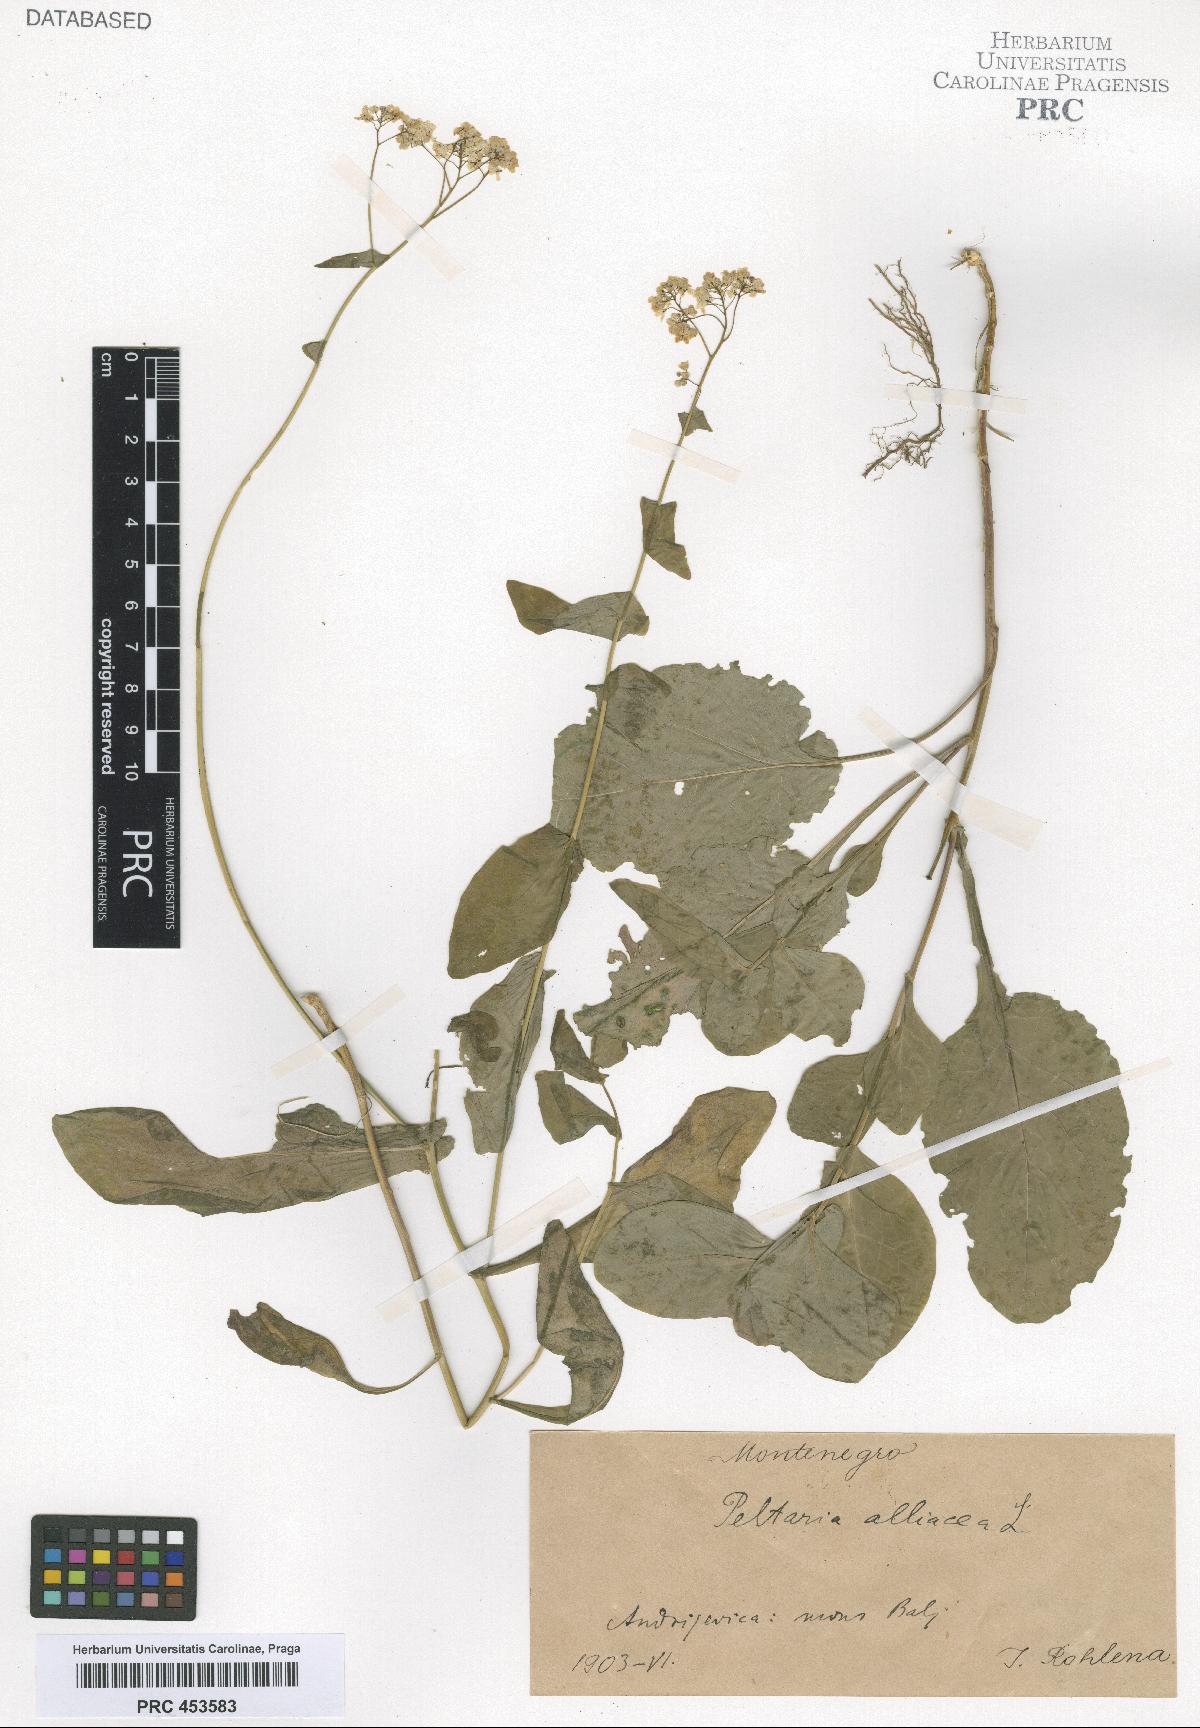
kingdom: Plantae
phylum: Tracheophyta
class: Magnoliopsida
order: Brassicales
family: Brassicaceae
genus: Peltaria
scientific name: Peltaria alliacea
